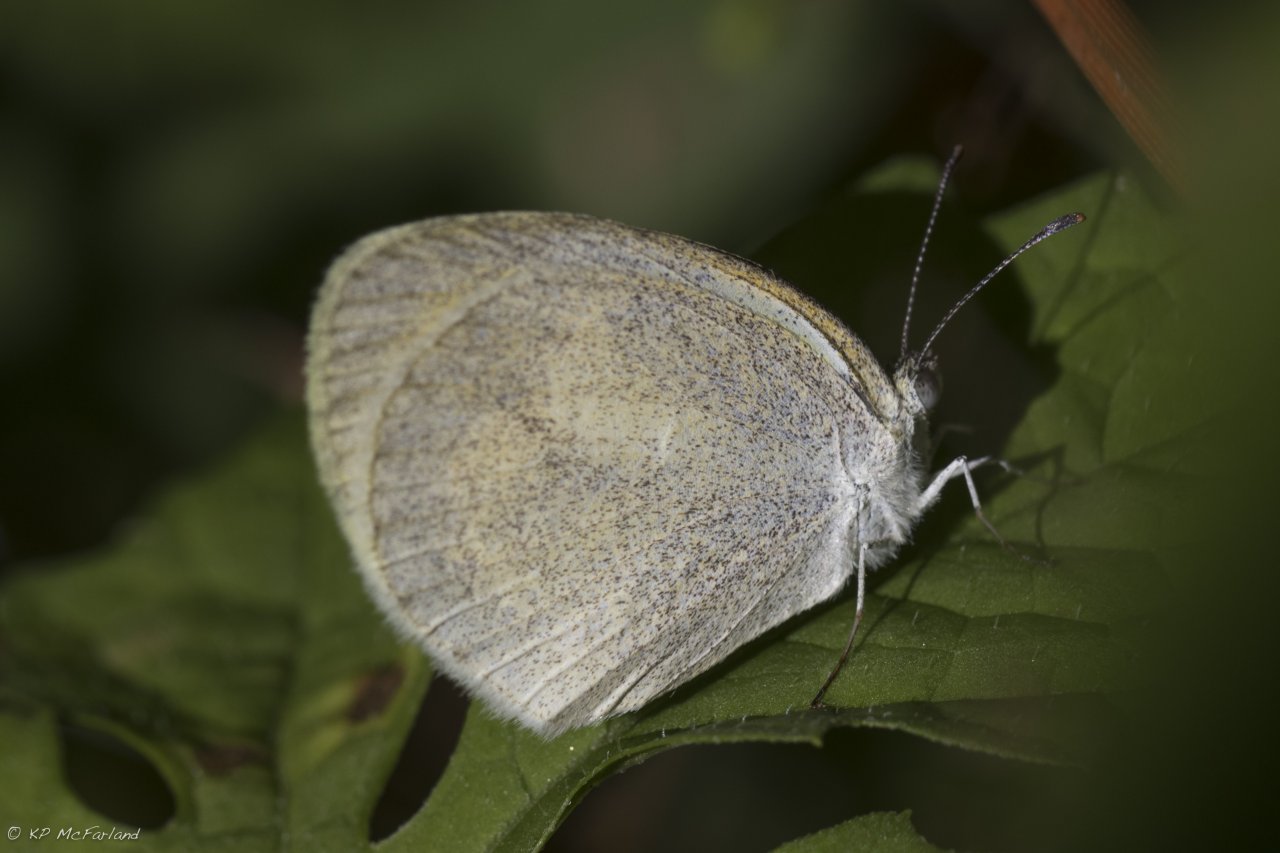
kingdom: Animalia
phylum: Arthropoda
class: Insecta
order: Lepidoptera
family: Pieridae
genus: Eurema
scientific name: Eurema daira
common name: Barred Yellow
